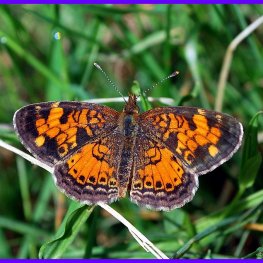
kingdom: Animalia
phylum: Arthropoda
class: Insecta
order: Lepidoptera
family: Nymphalidae
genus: Phyciodes
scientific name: Phyciodes tharos
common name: Northern Crescent
